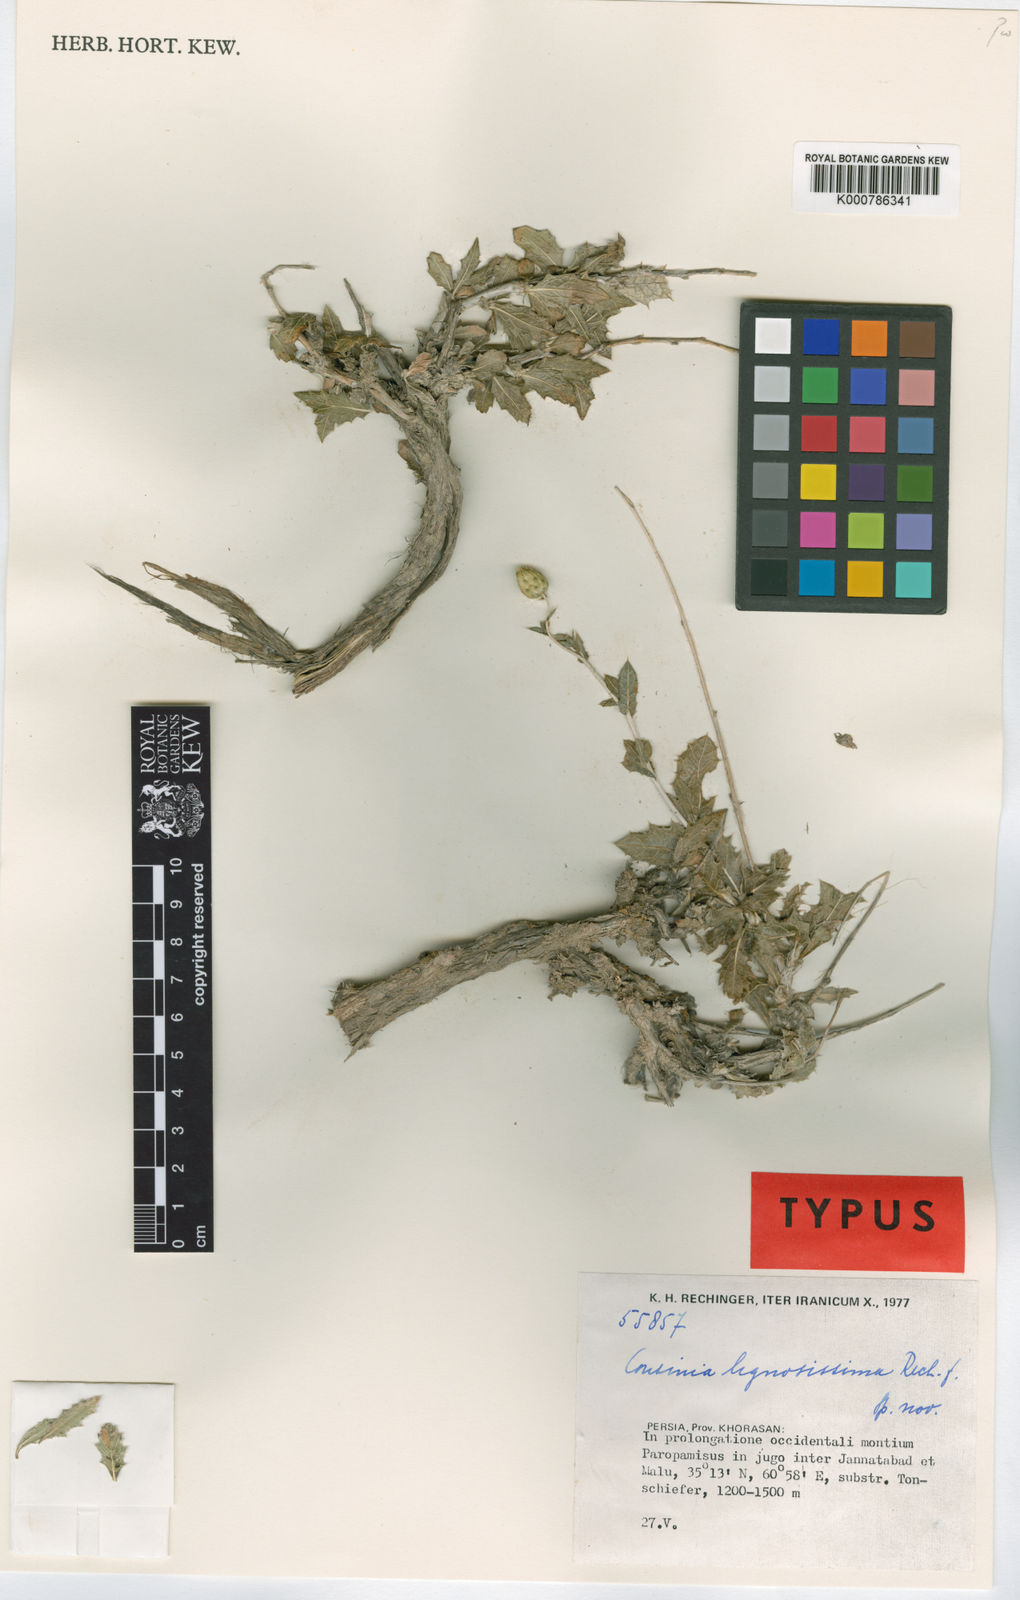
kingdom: Plantae
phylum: Tracheophyta
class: Magnoliopsida
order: Asterales
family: Asteraceae
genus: Cousinia
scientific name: Cousinia lignosissima
